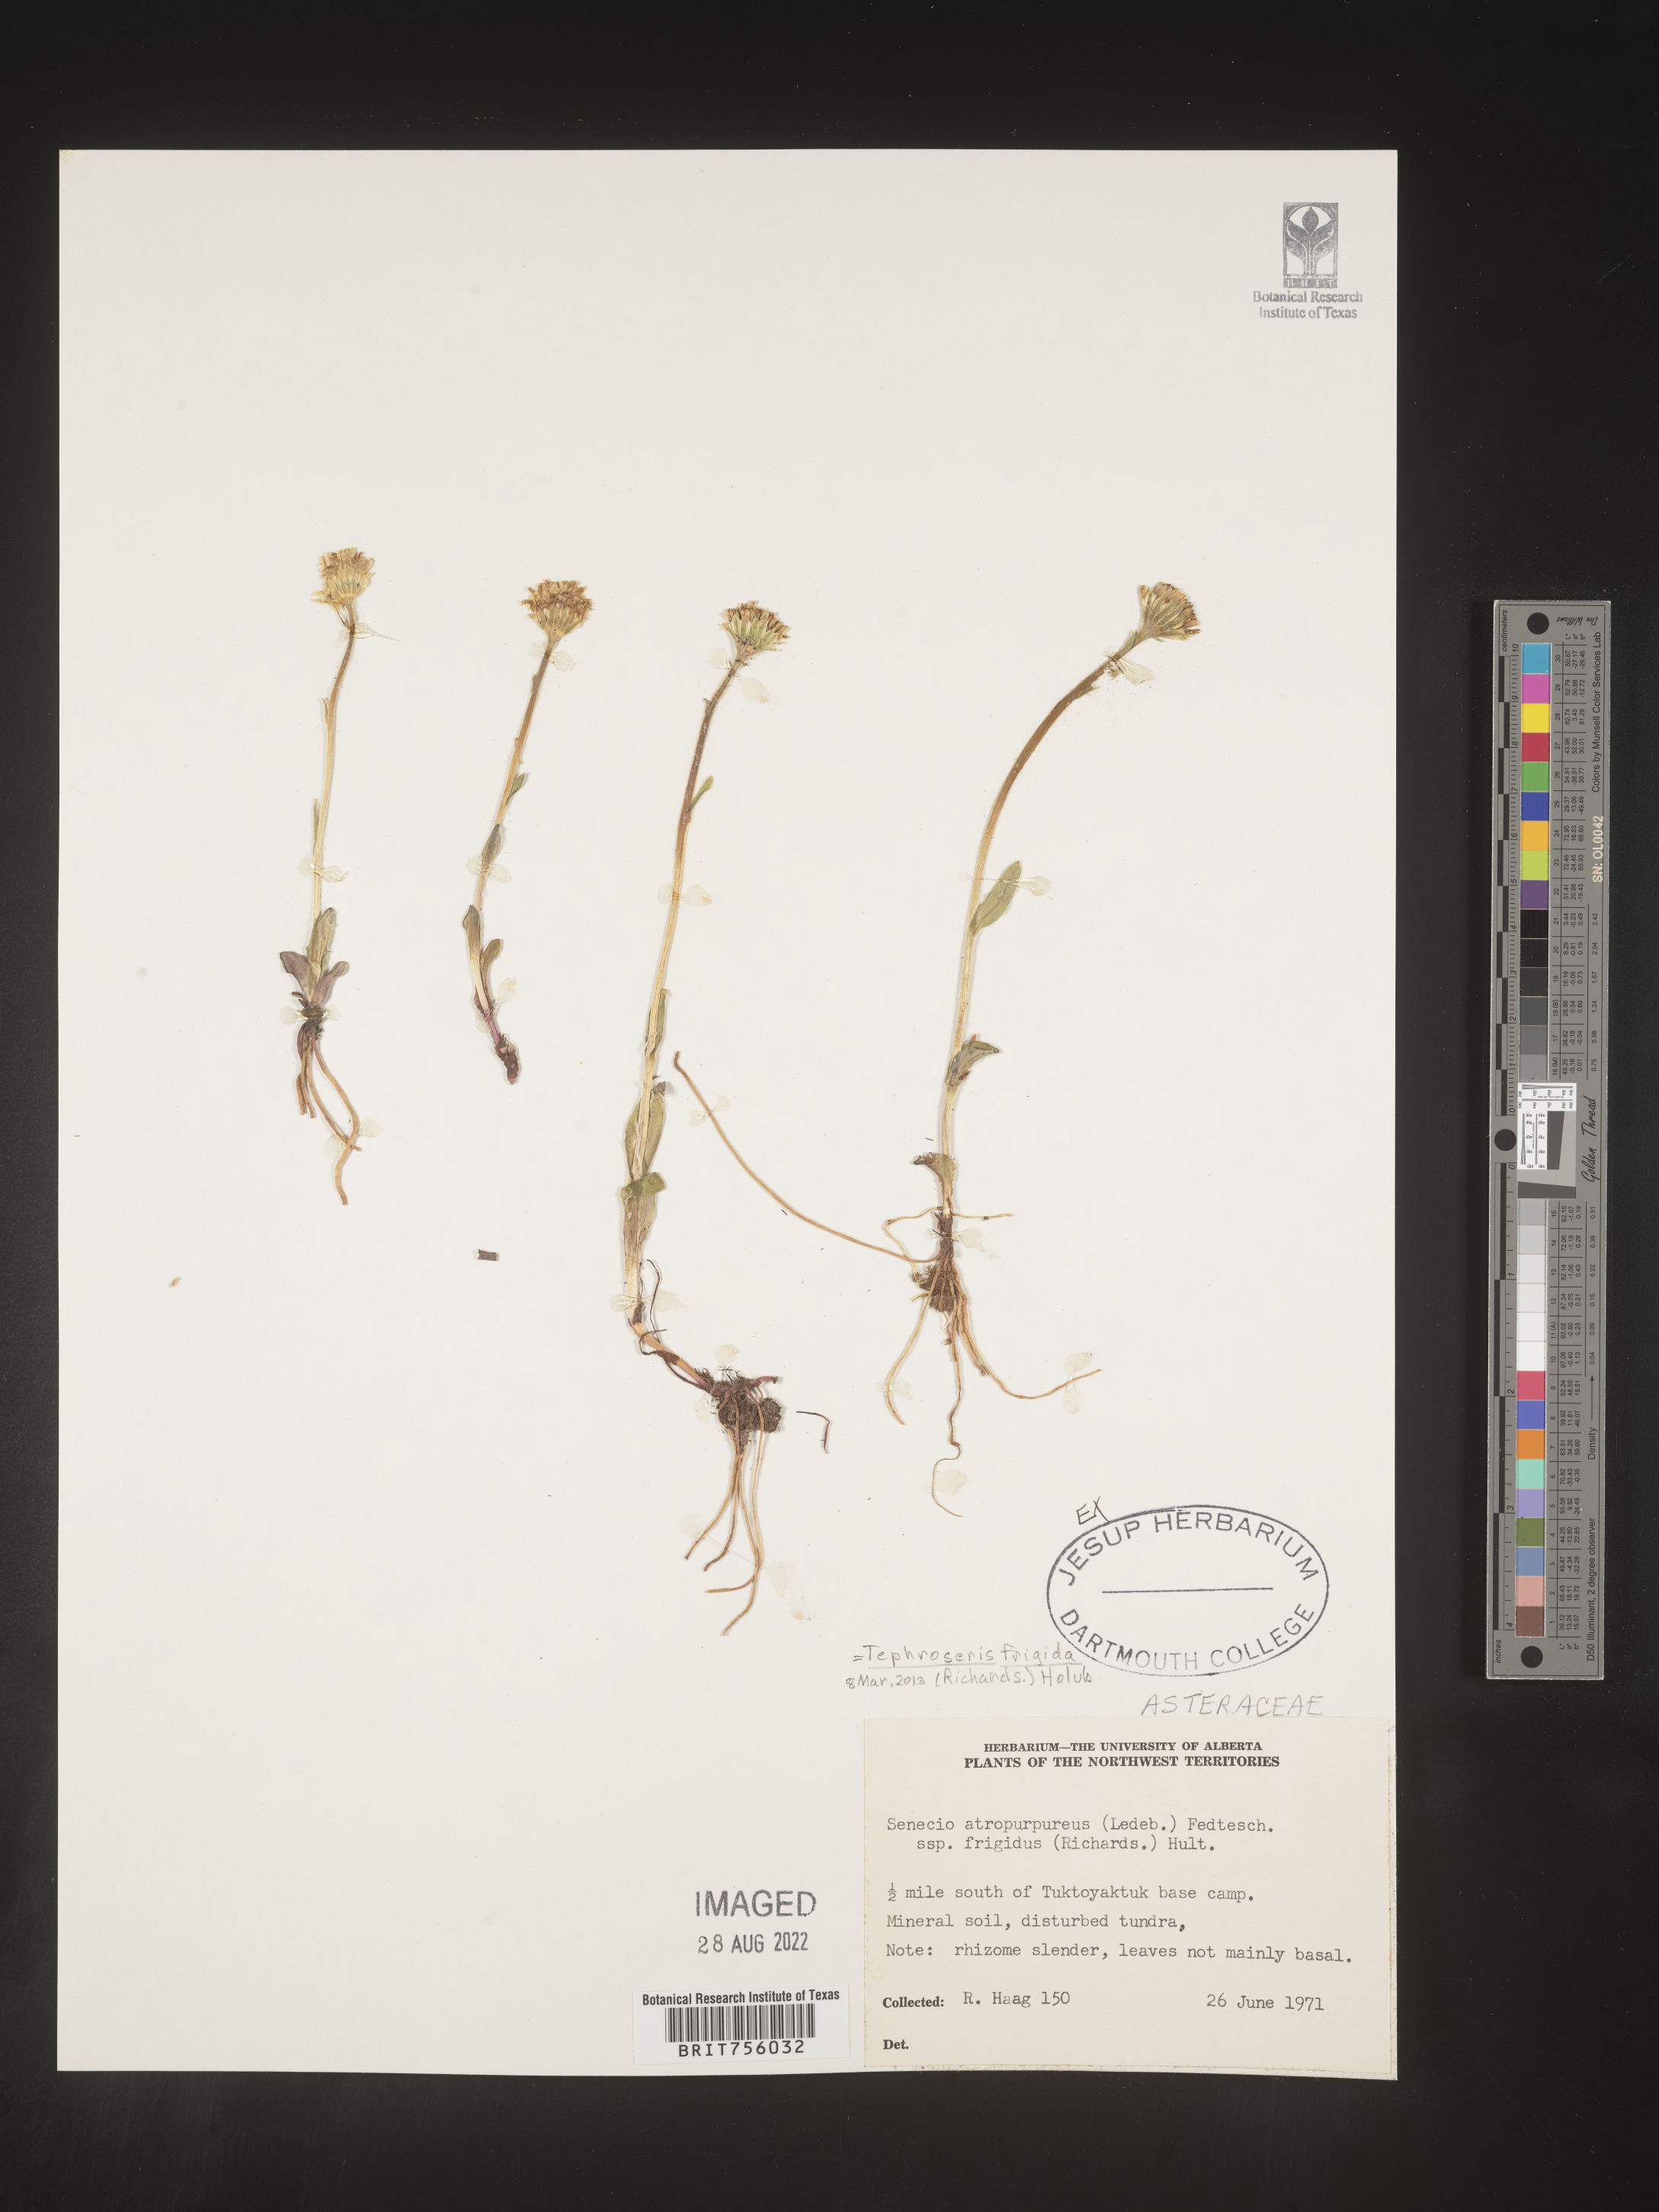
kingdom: Plantae
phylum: Tracheophyta
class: Magnoliopsida
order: Asterales
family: Asteraceae
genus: Tephroseris
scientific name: Tephroseris
